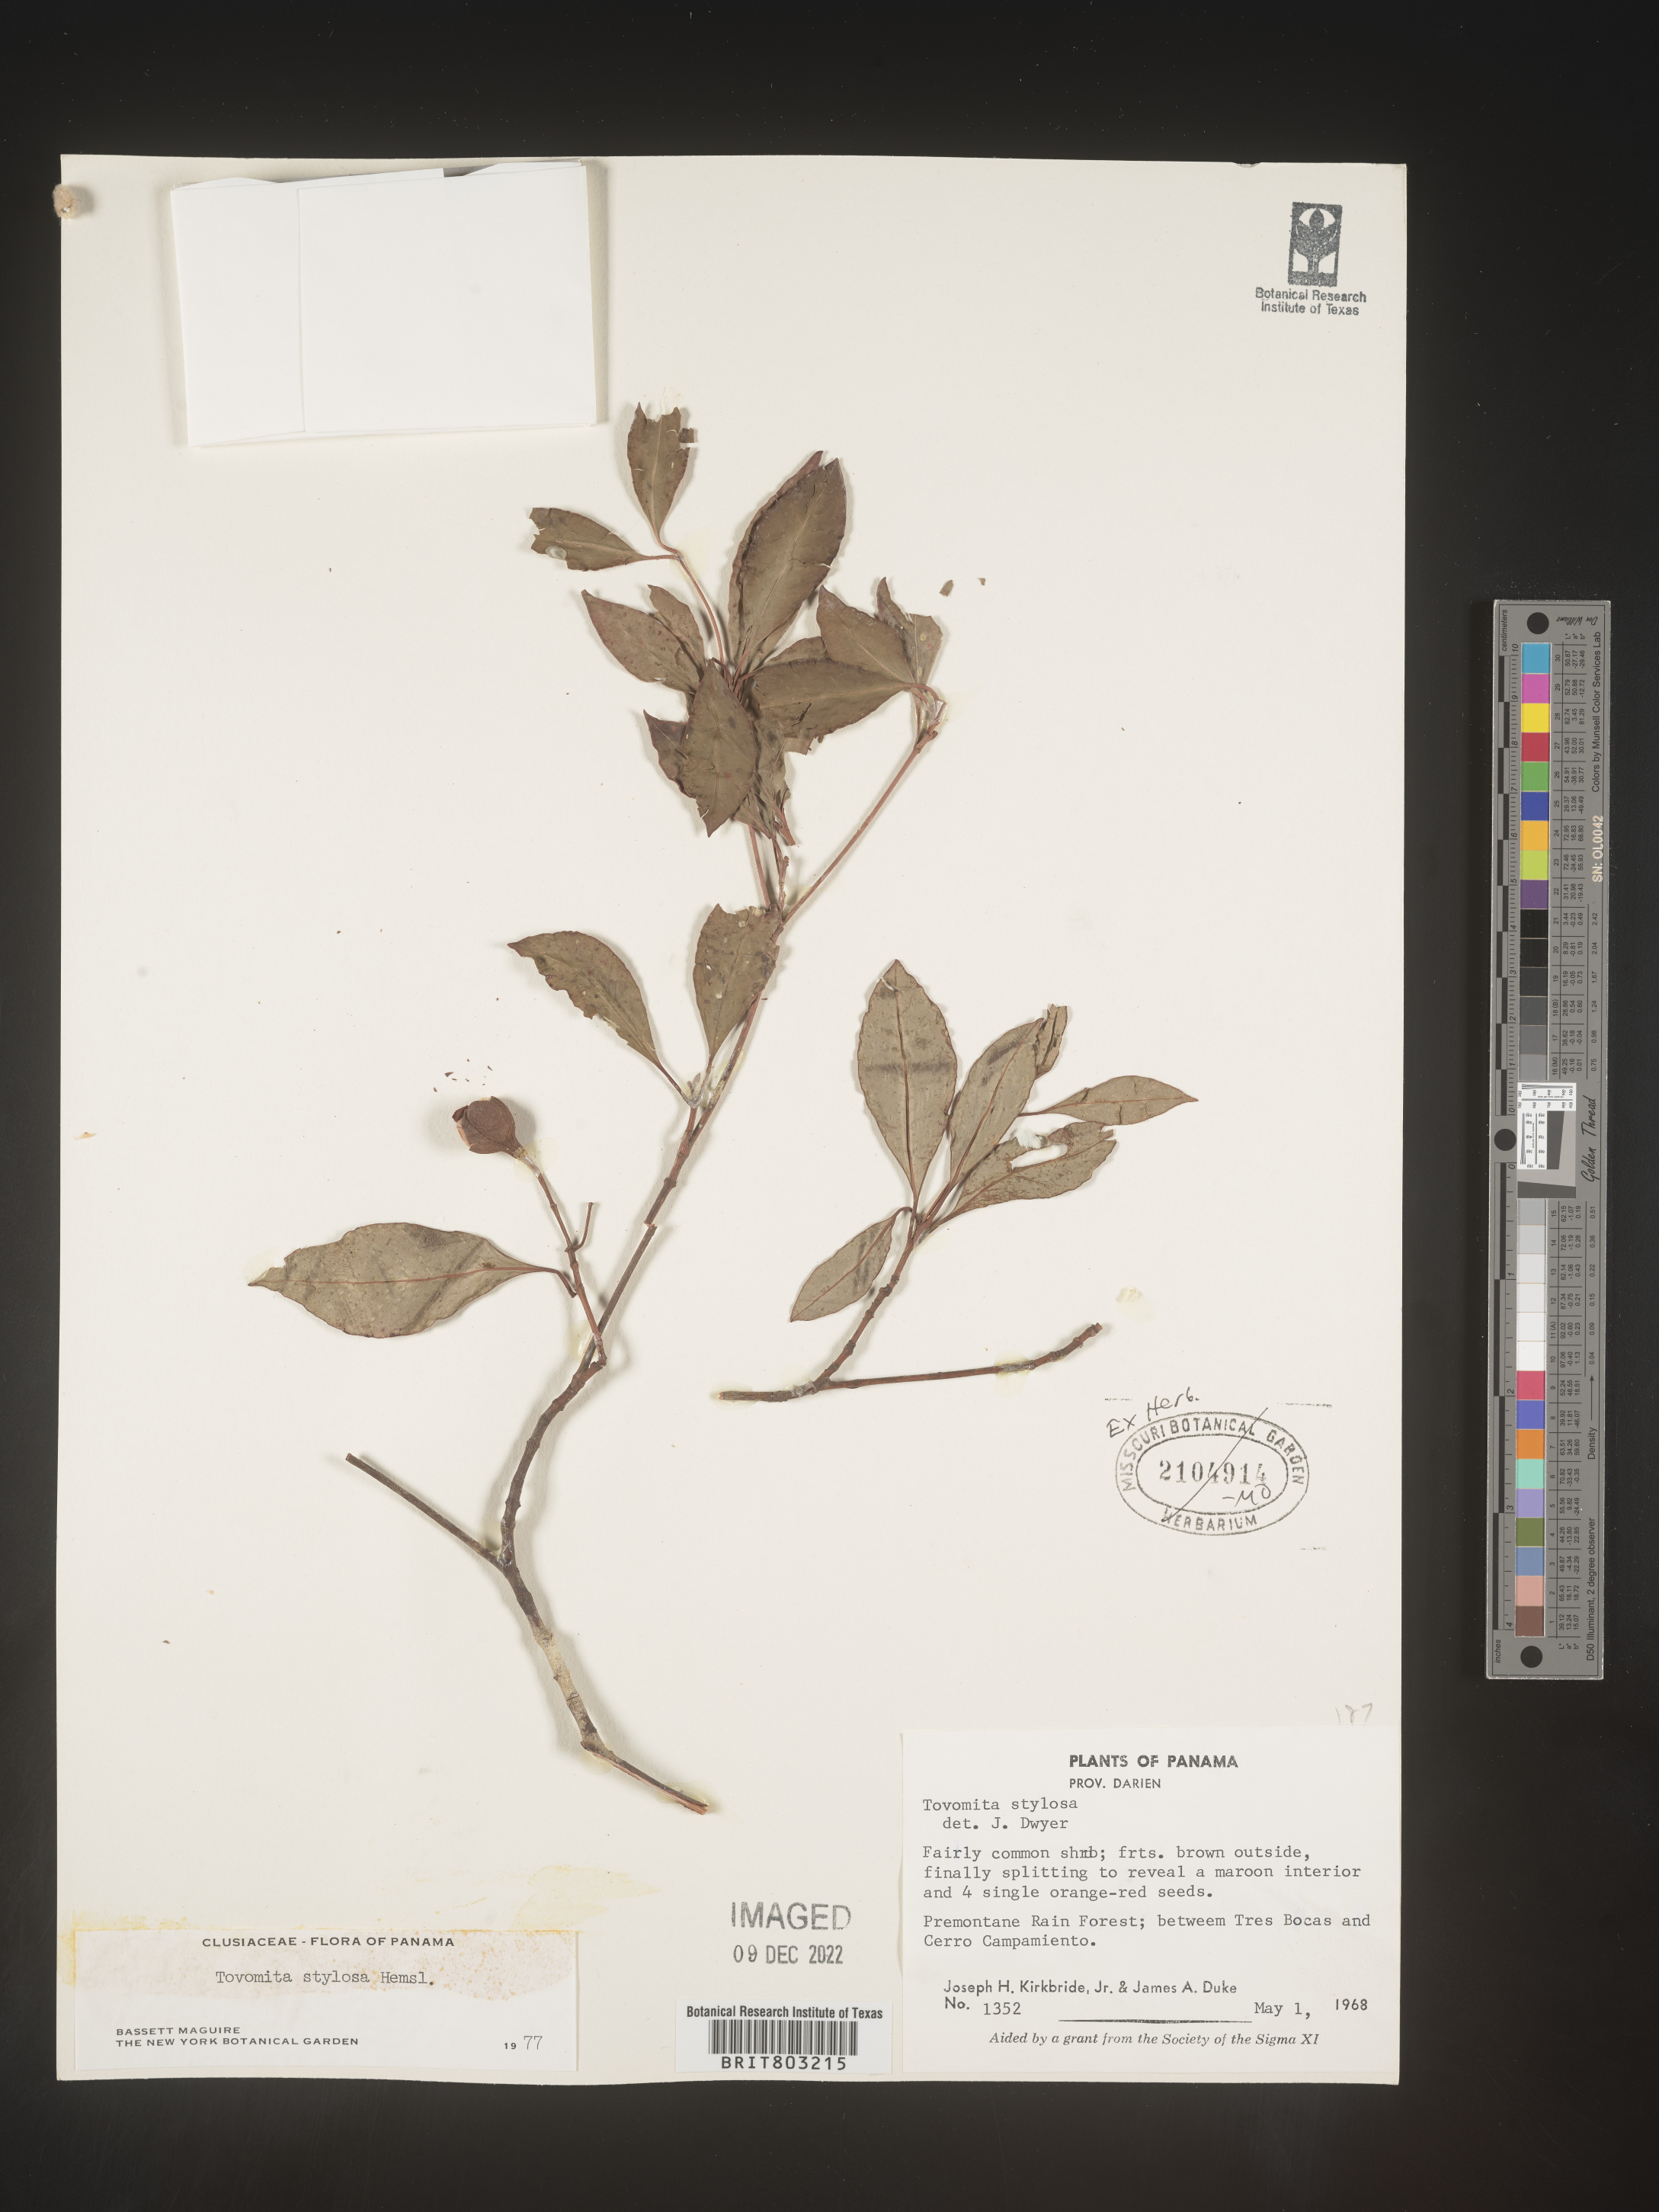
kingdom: Plantae
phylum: Tracheophyta
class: Magnoliopsida
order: Malpighiales
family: Clusiaceae
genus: Tovomita
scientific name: Tovomita
